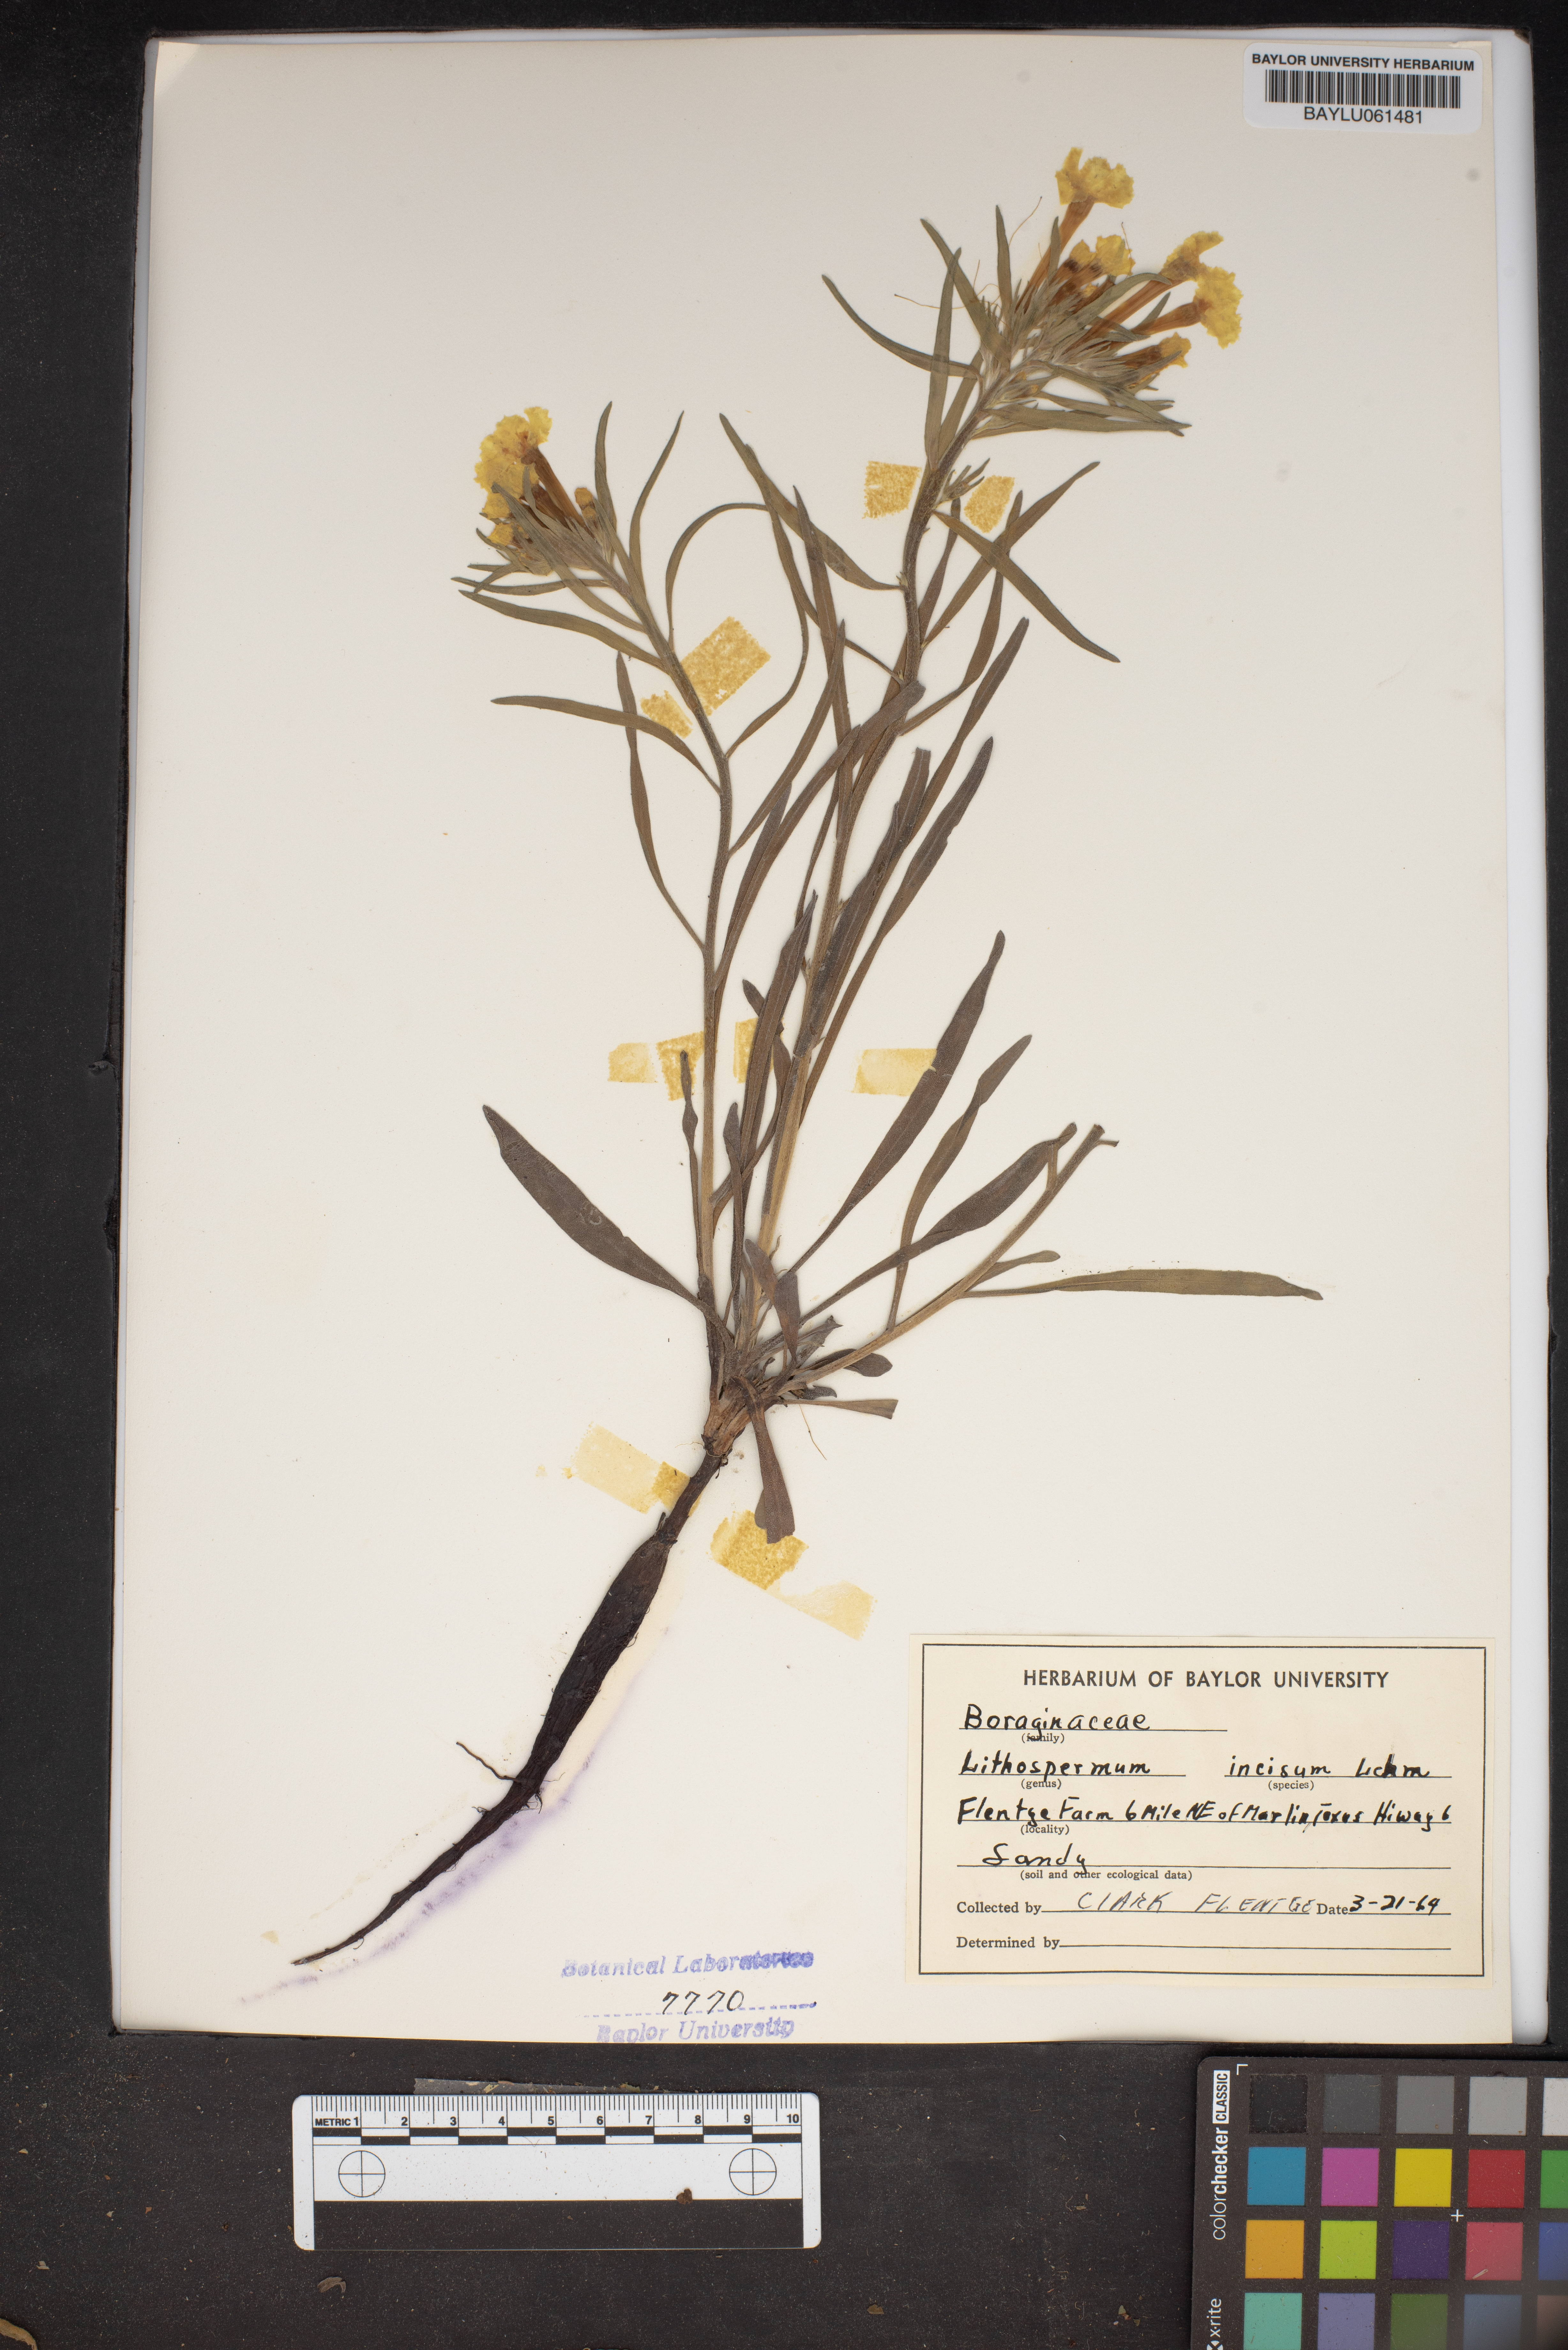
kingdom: Plantae
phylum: Tracheophyta
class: Magnoliopsida
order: Boraginales
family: Boraginaceae
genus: Lithospermum
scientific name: Lithospermum incisum
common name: Fringed gromwell
